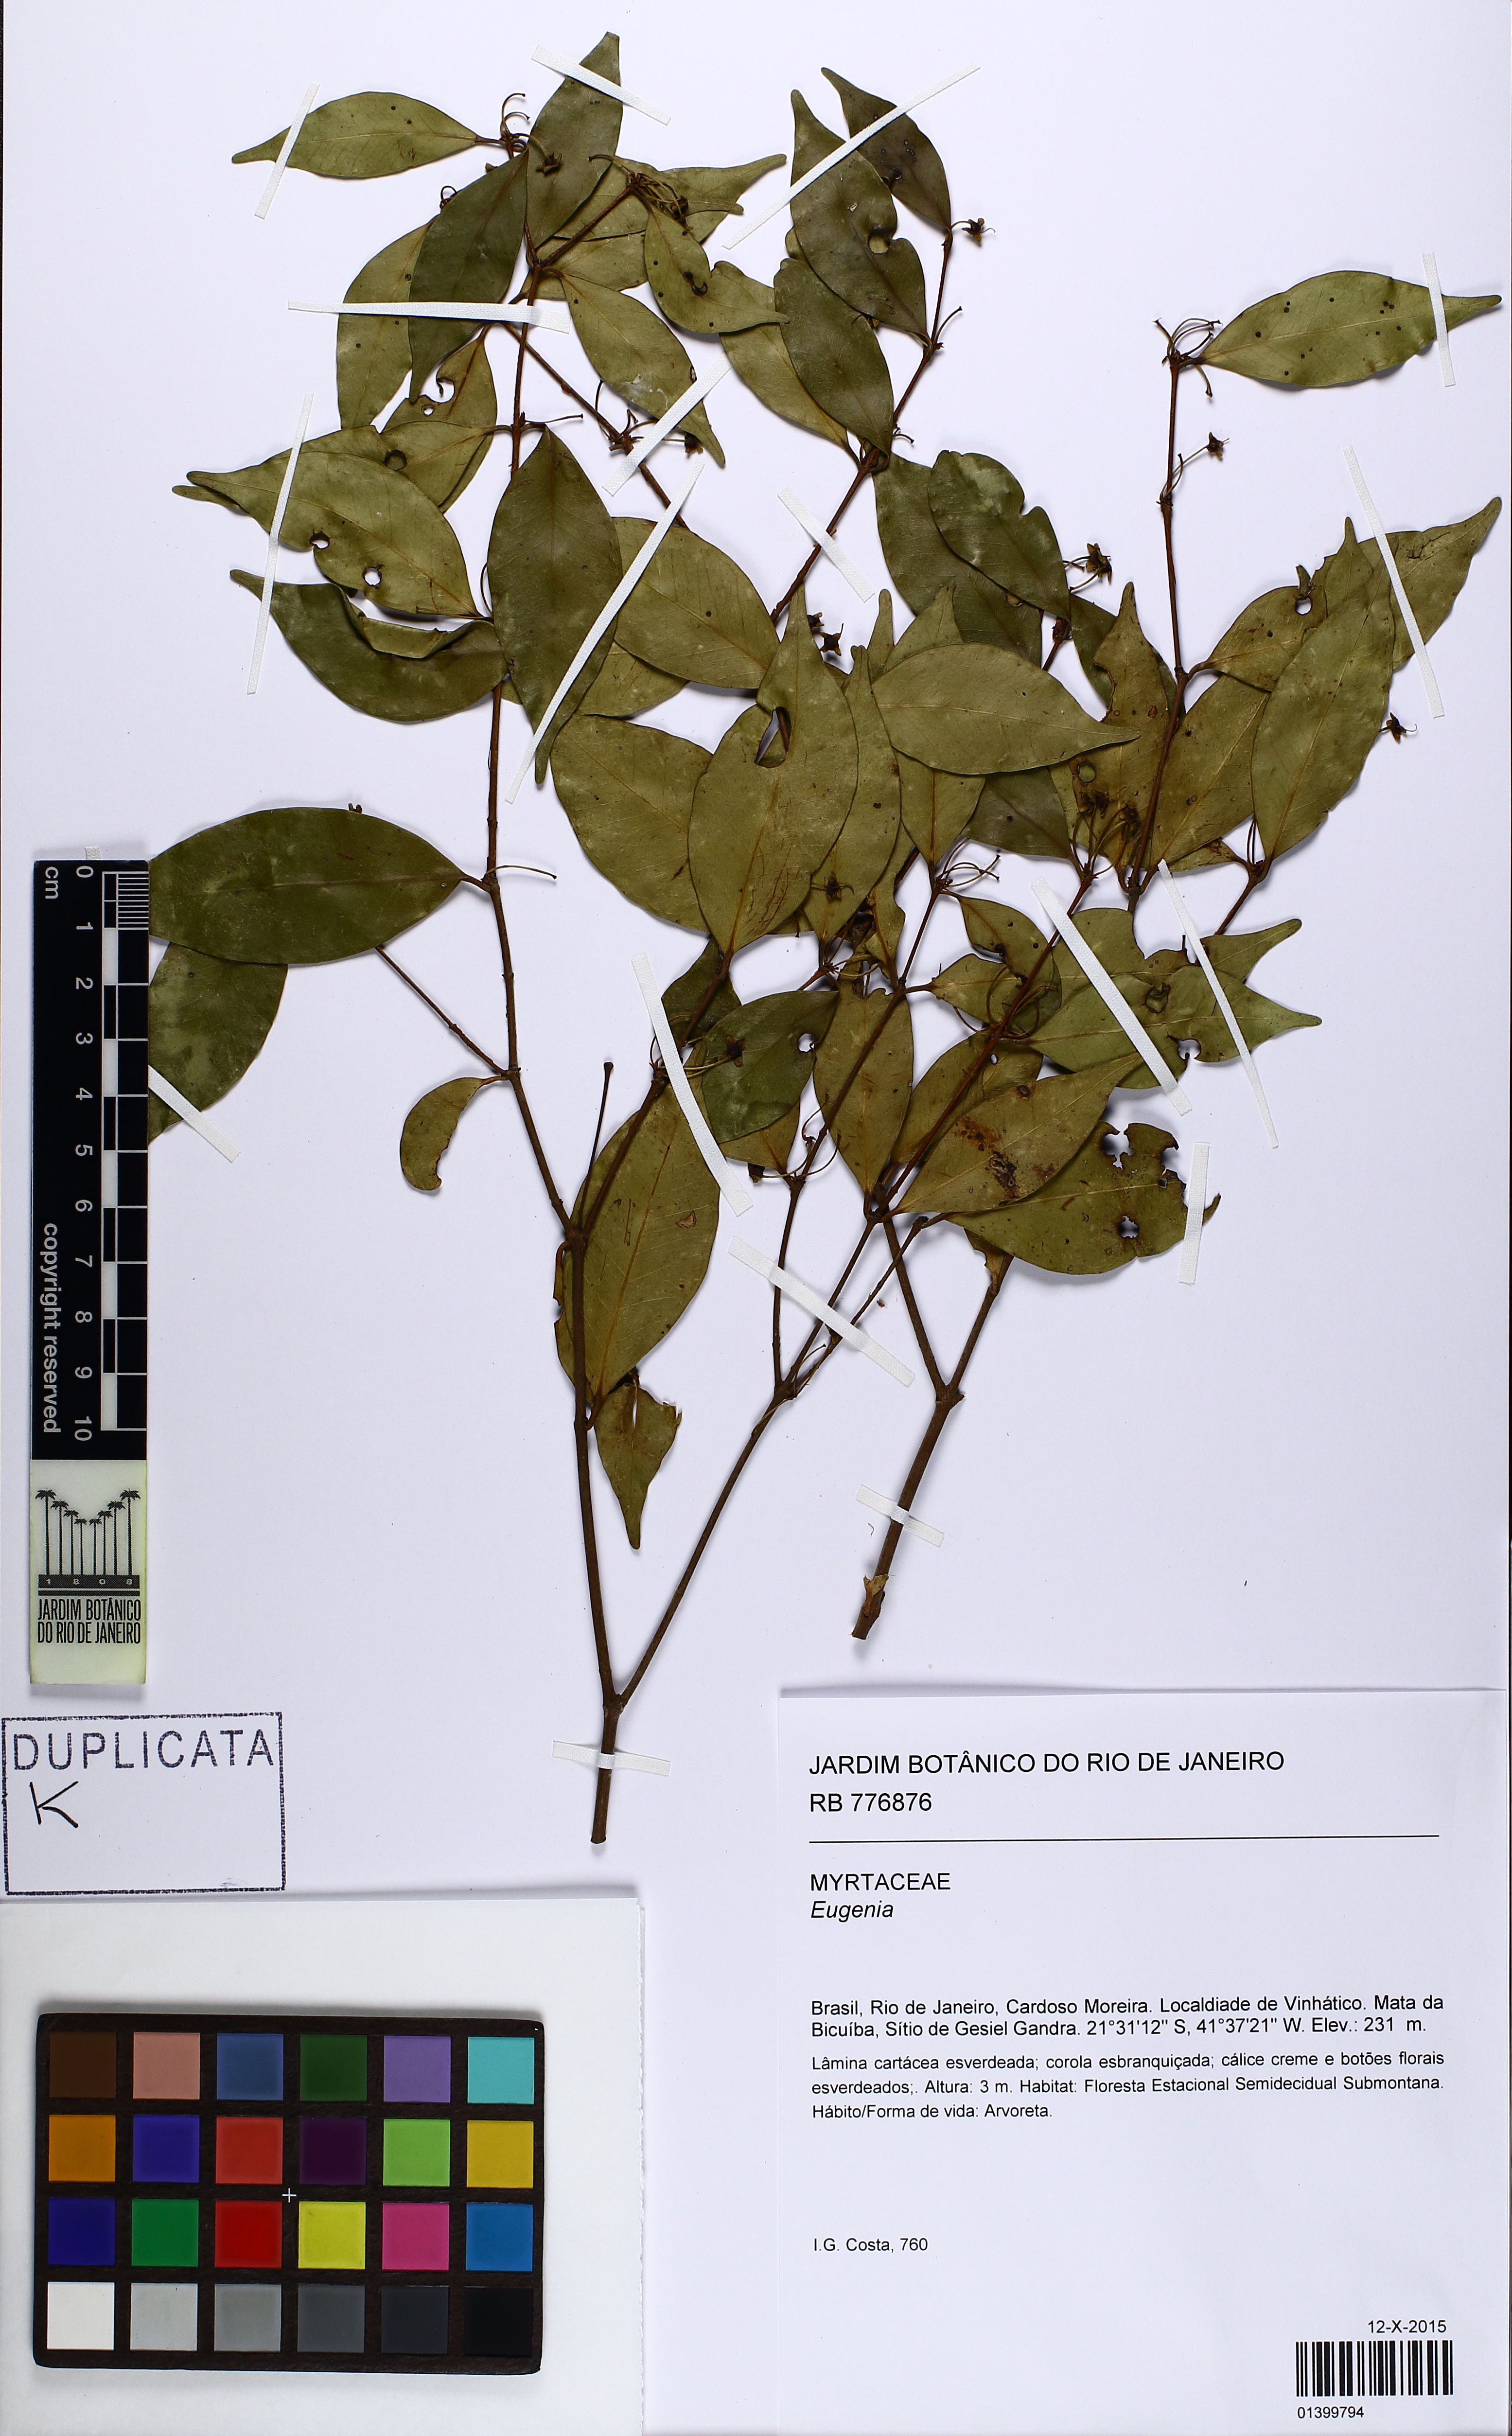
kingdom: Plantae
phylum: Tracheophyta
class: Magnoliopsida
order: Myrtales
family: Myrtaceae
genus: Eugenia
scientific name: Eugenia
